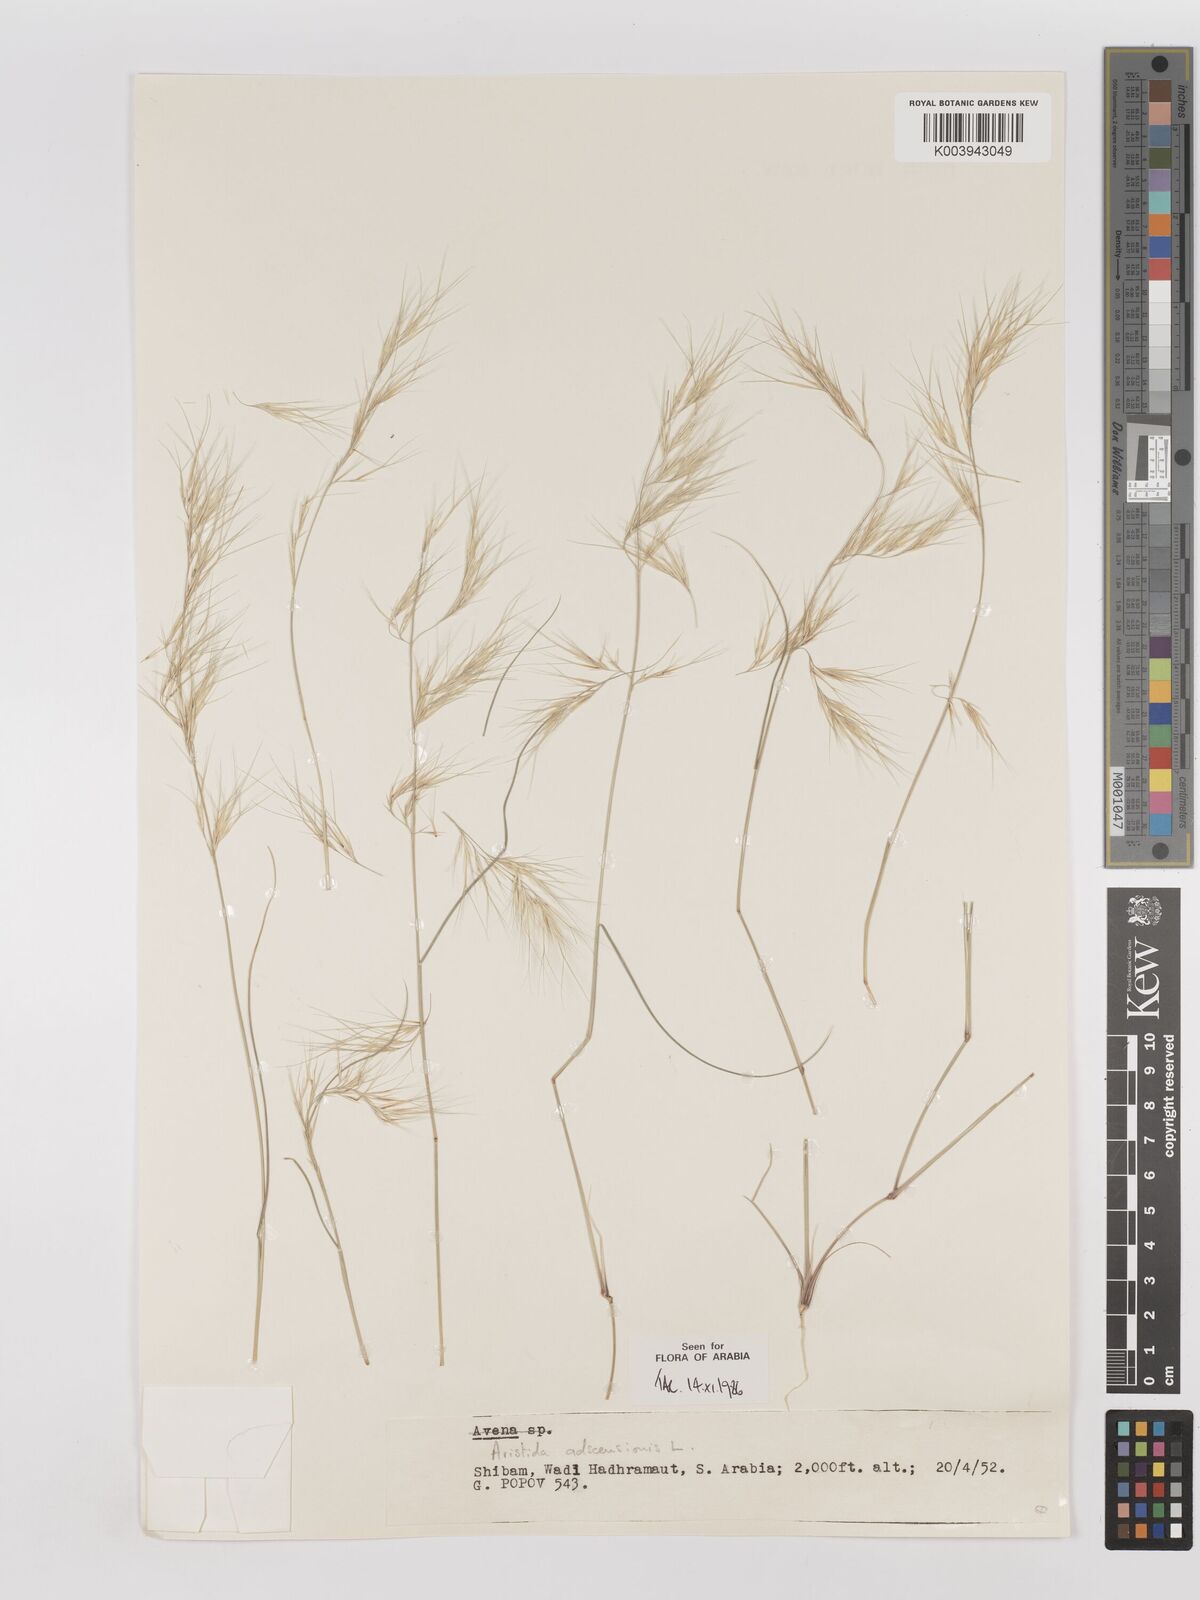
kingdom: Plantae
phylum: Tracheophyta
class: Liliopsida
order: Poales
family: Poaceae
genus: Aristida
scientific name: Aristida adscensionis
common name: Sixweeks threeawn
